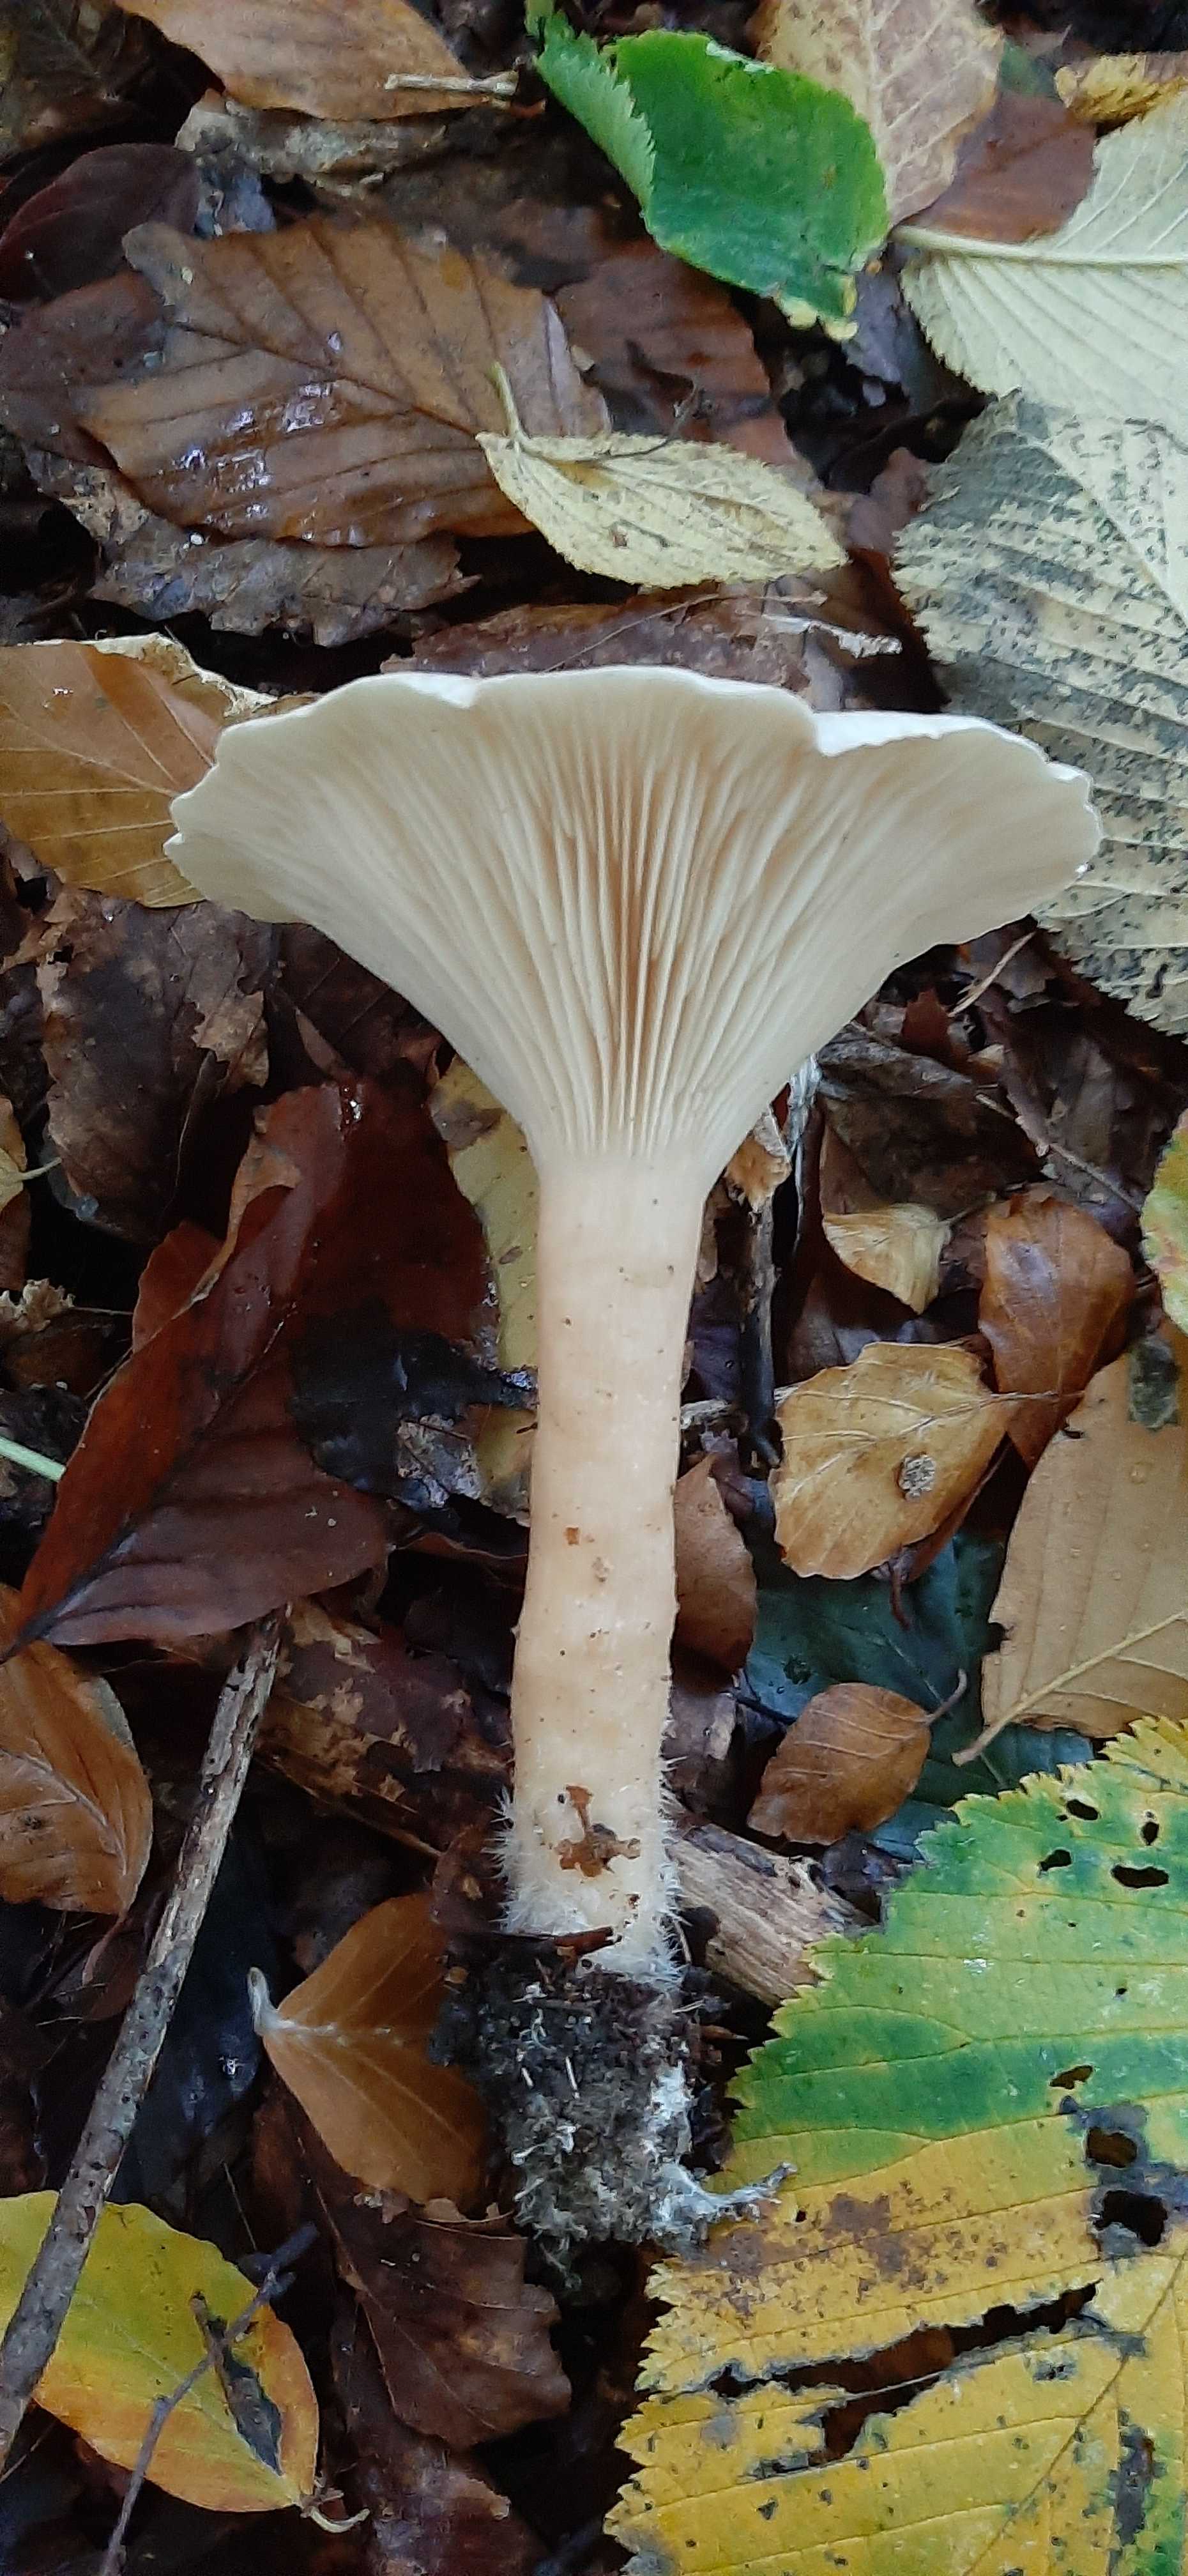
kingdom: Fungi
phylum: Basidiomycota
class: Agaricomycetes
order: Agaricales
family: Tricholomataceae
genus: Infundibulicybe
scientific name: Infundibulicybe geotropa
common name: stor tragthat
